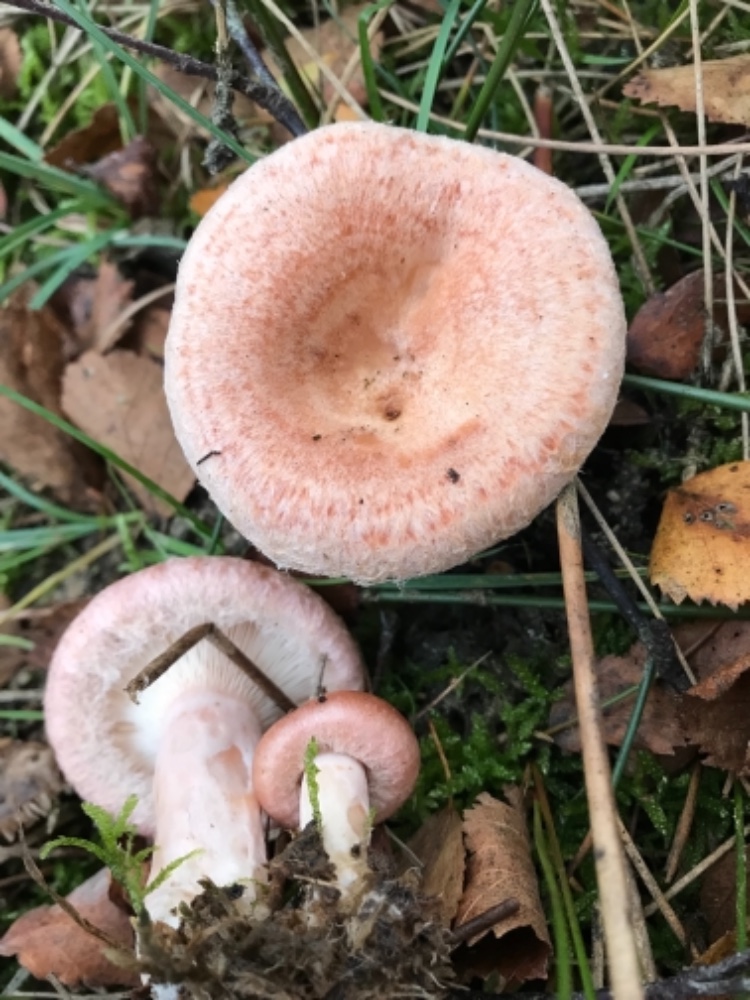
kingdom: Fungi
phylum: Basidiomycota
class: Agaricomycetes
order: Russulales
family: Russulaceae
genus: Lactarius
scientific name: Lactarius torminosus
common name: skægget mælkehat
